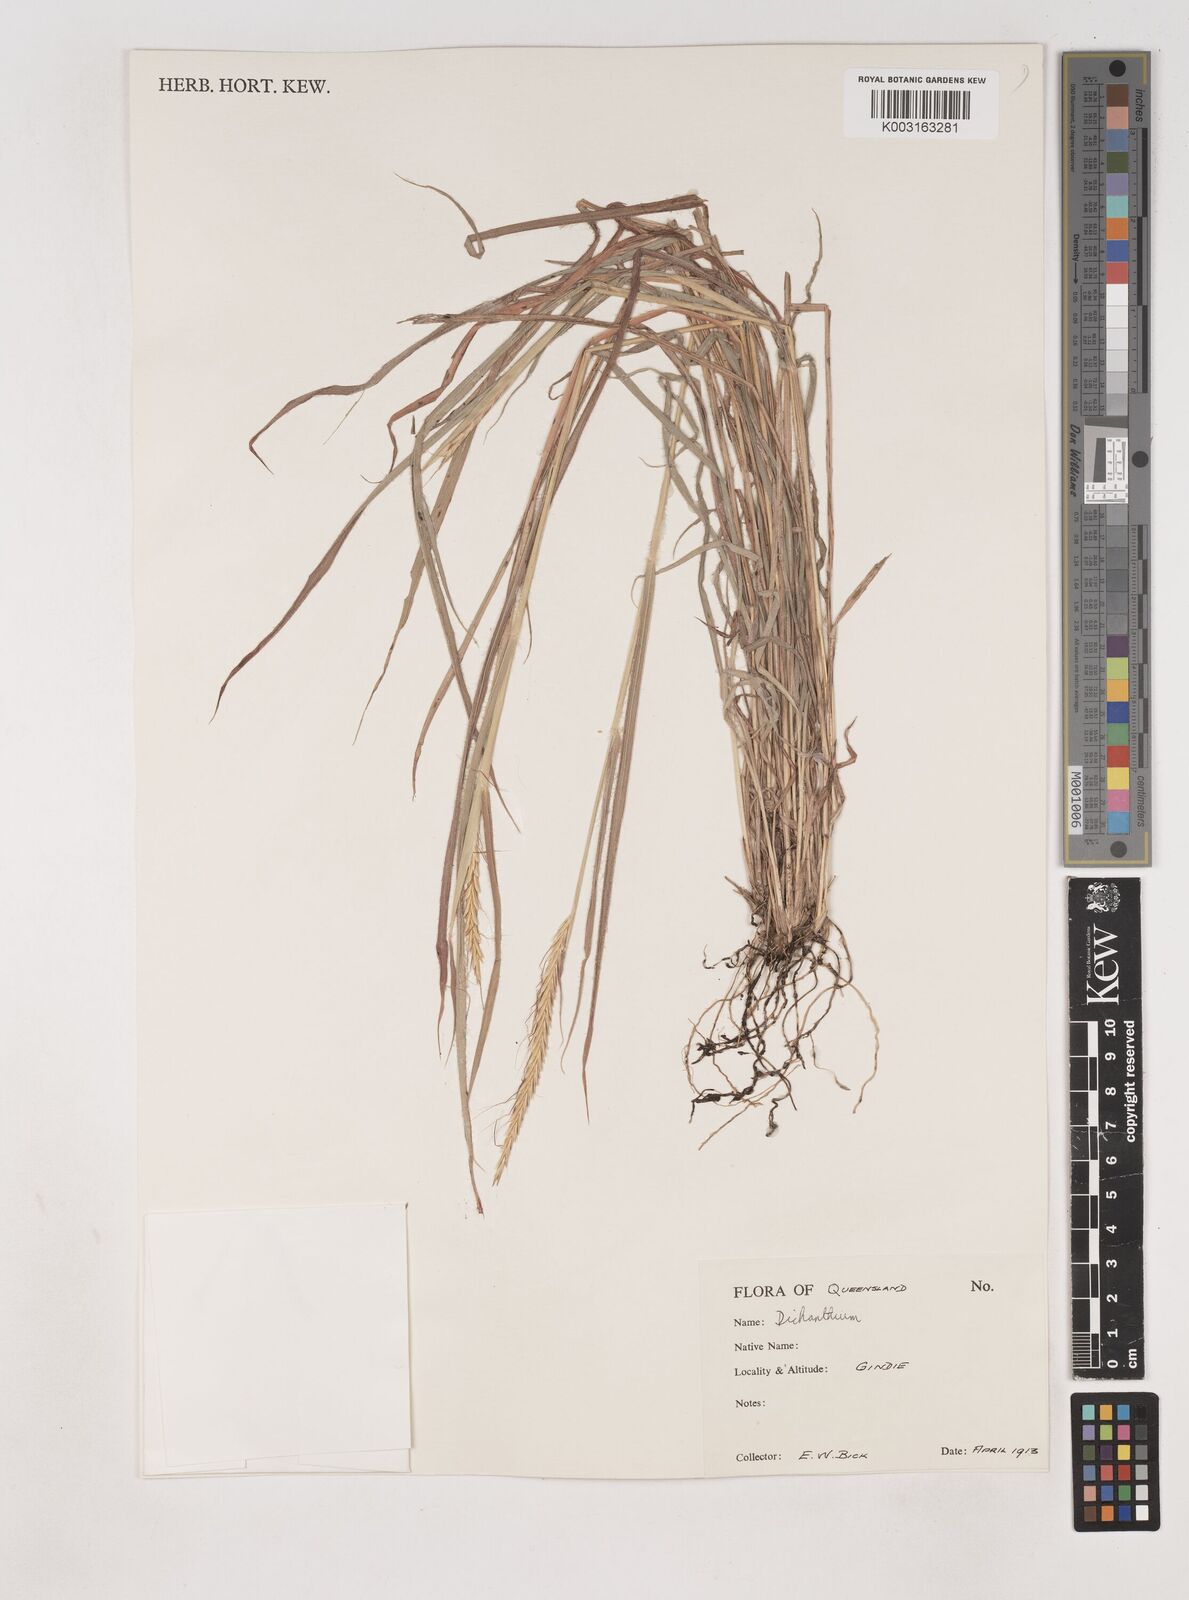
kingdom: Plantae
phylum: Tracheophyta
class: Liliopsida
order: Poales
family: Poaceae
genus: Dichanthium
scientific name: Dichanthium queenslandicum
